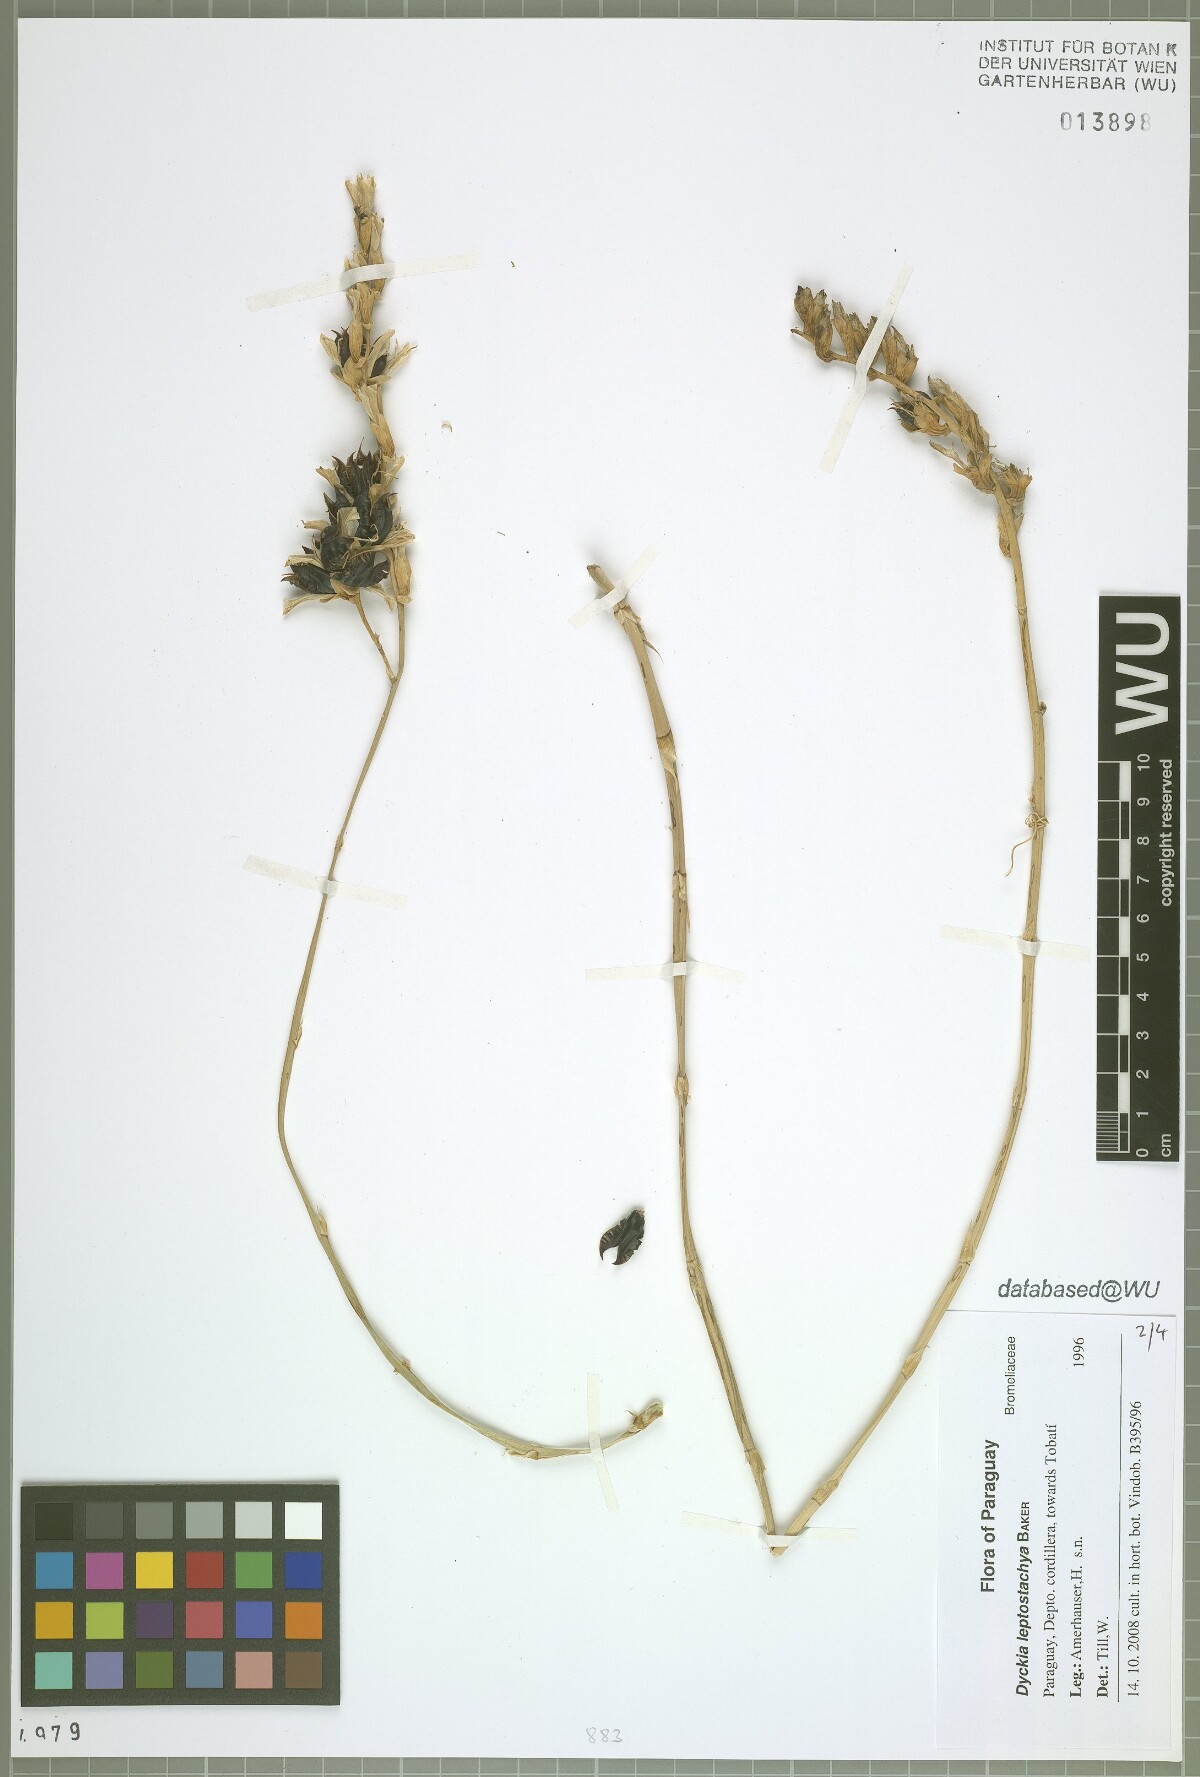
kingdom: Plantae
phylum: Tracheophyta
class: Liliopsida
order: Poales
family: Bromeliaceae
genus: Dyckia
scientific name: Dyckia leptostachya
